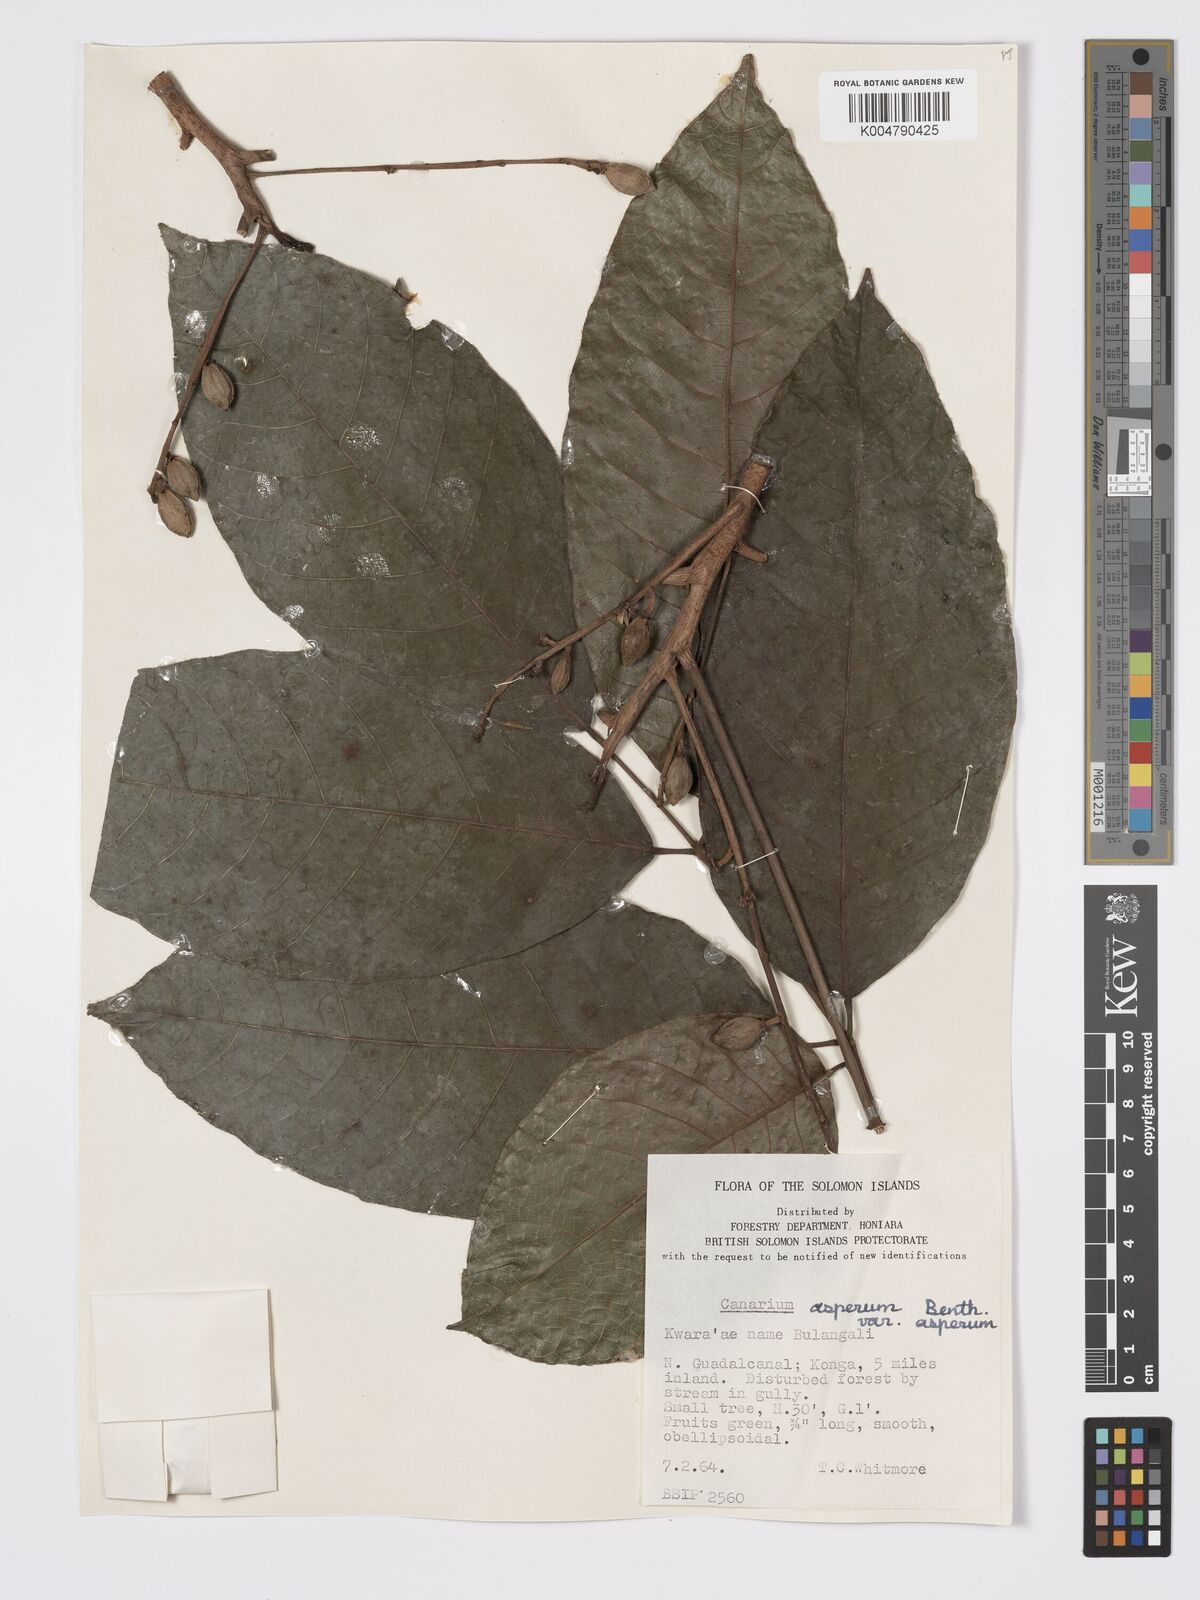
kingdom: Plantae
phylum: Tracheophyta
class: Magnoliopsida
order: Sapindales
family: Burseraceae
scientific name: Burseraceae
